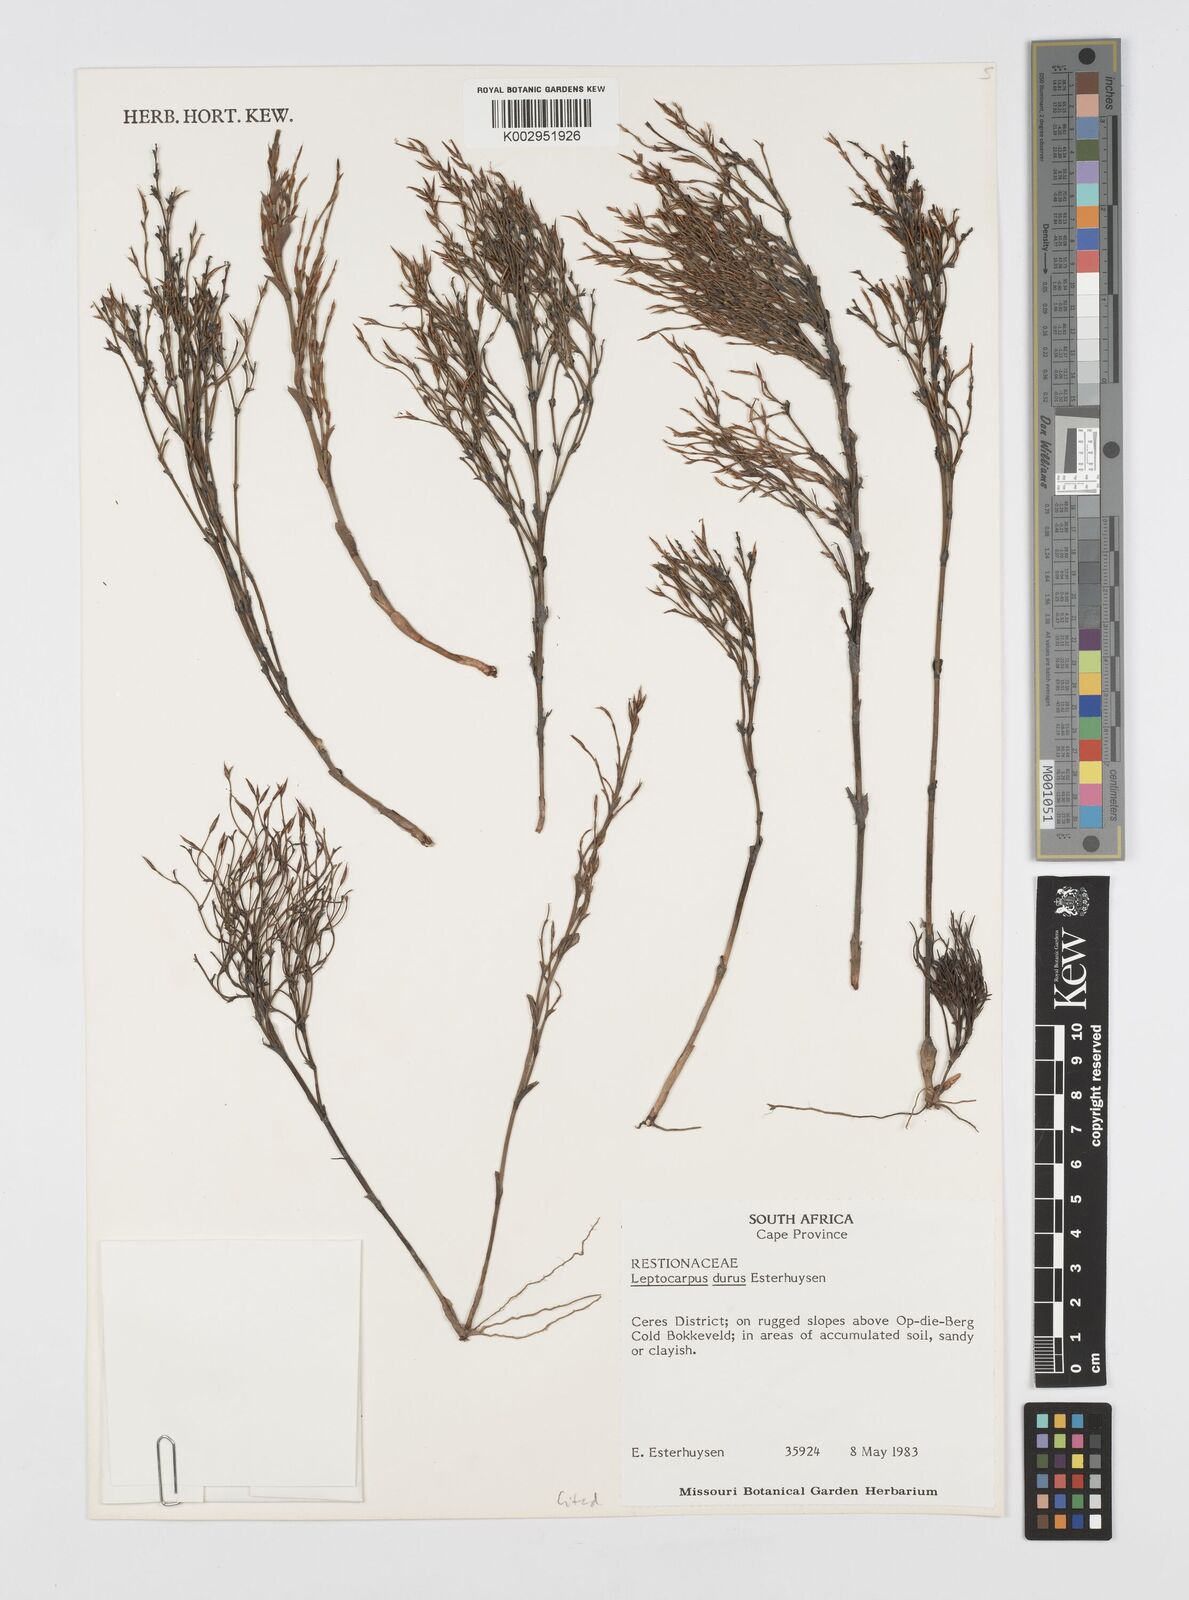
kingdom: Plantae
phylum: Tracheophyta
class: Liliopsida
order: Poales
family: Restionaceae
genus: Restio
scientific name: Restio durus
